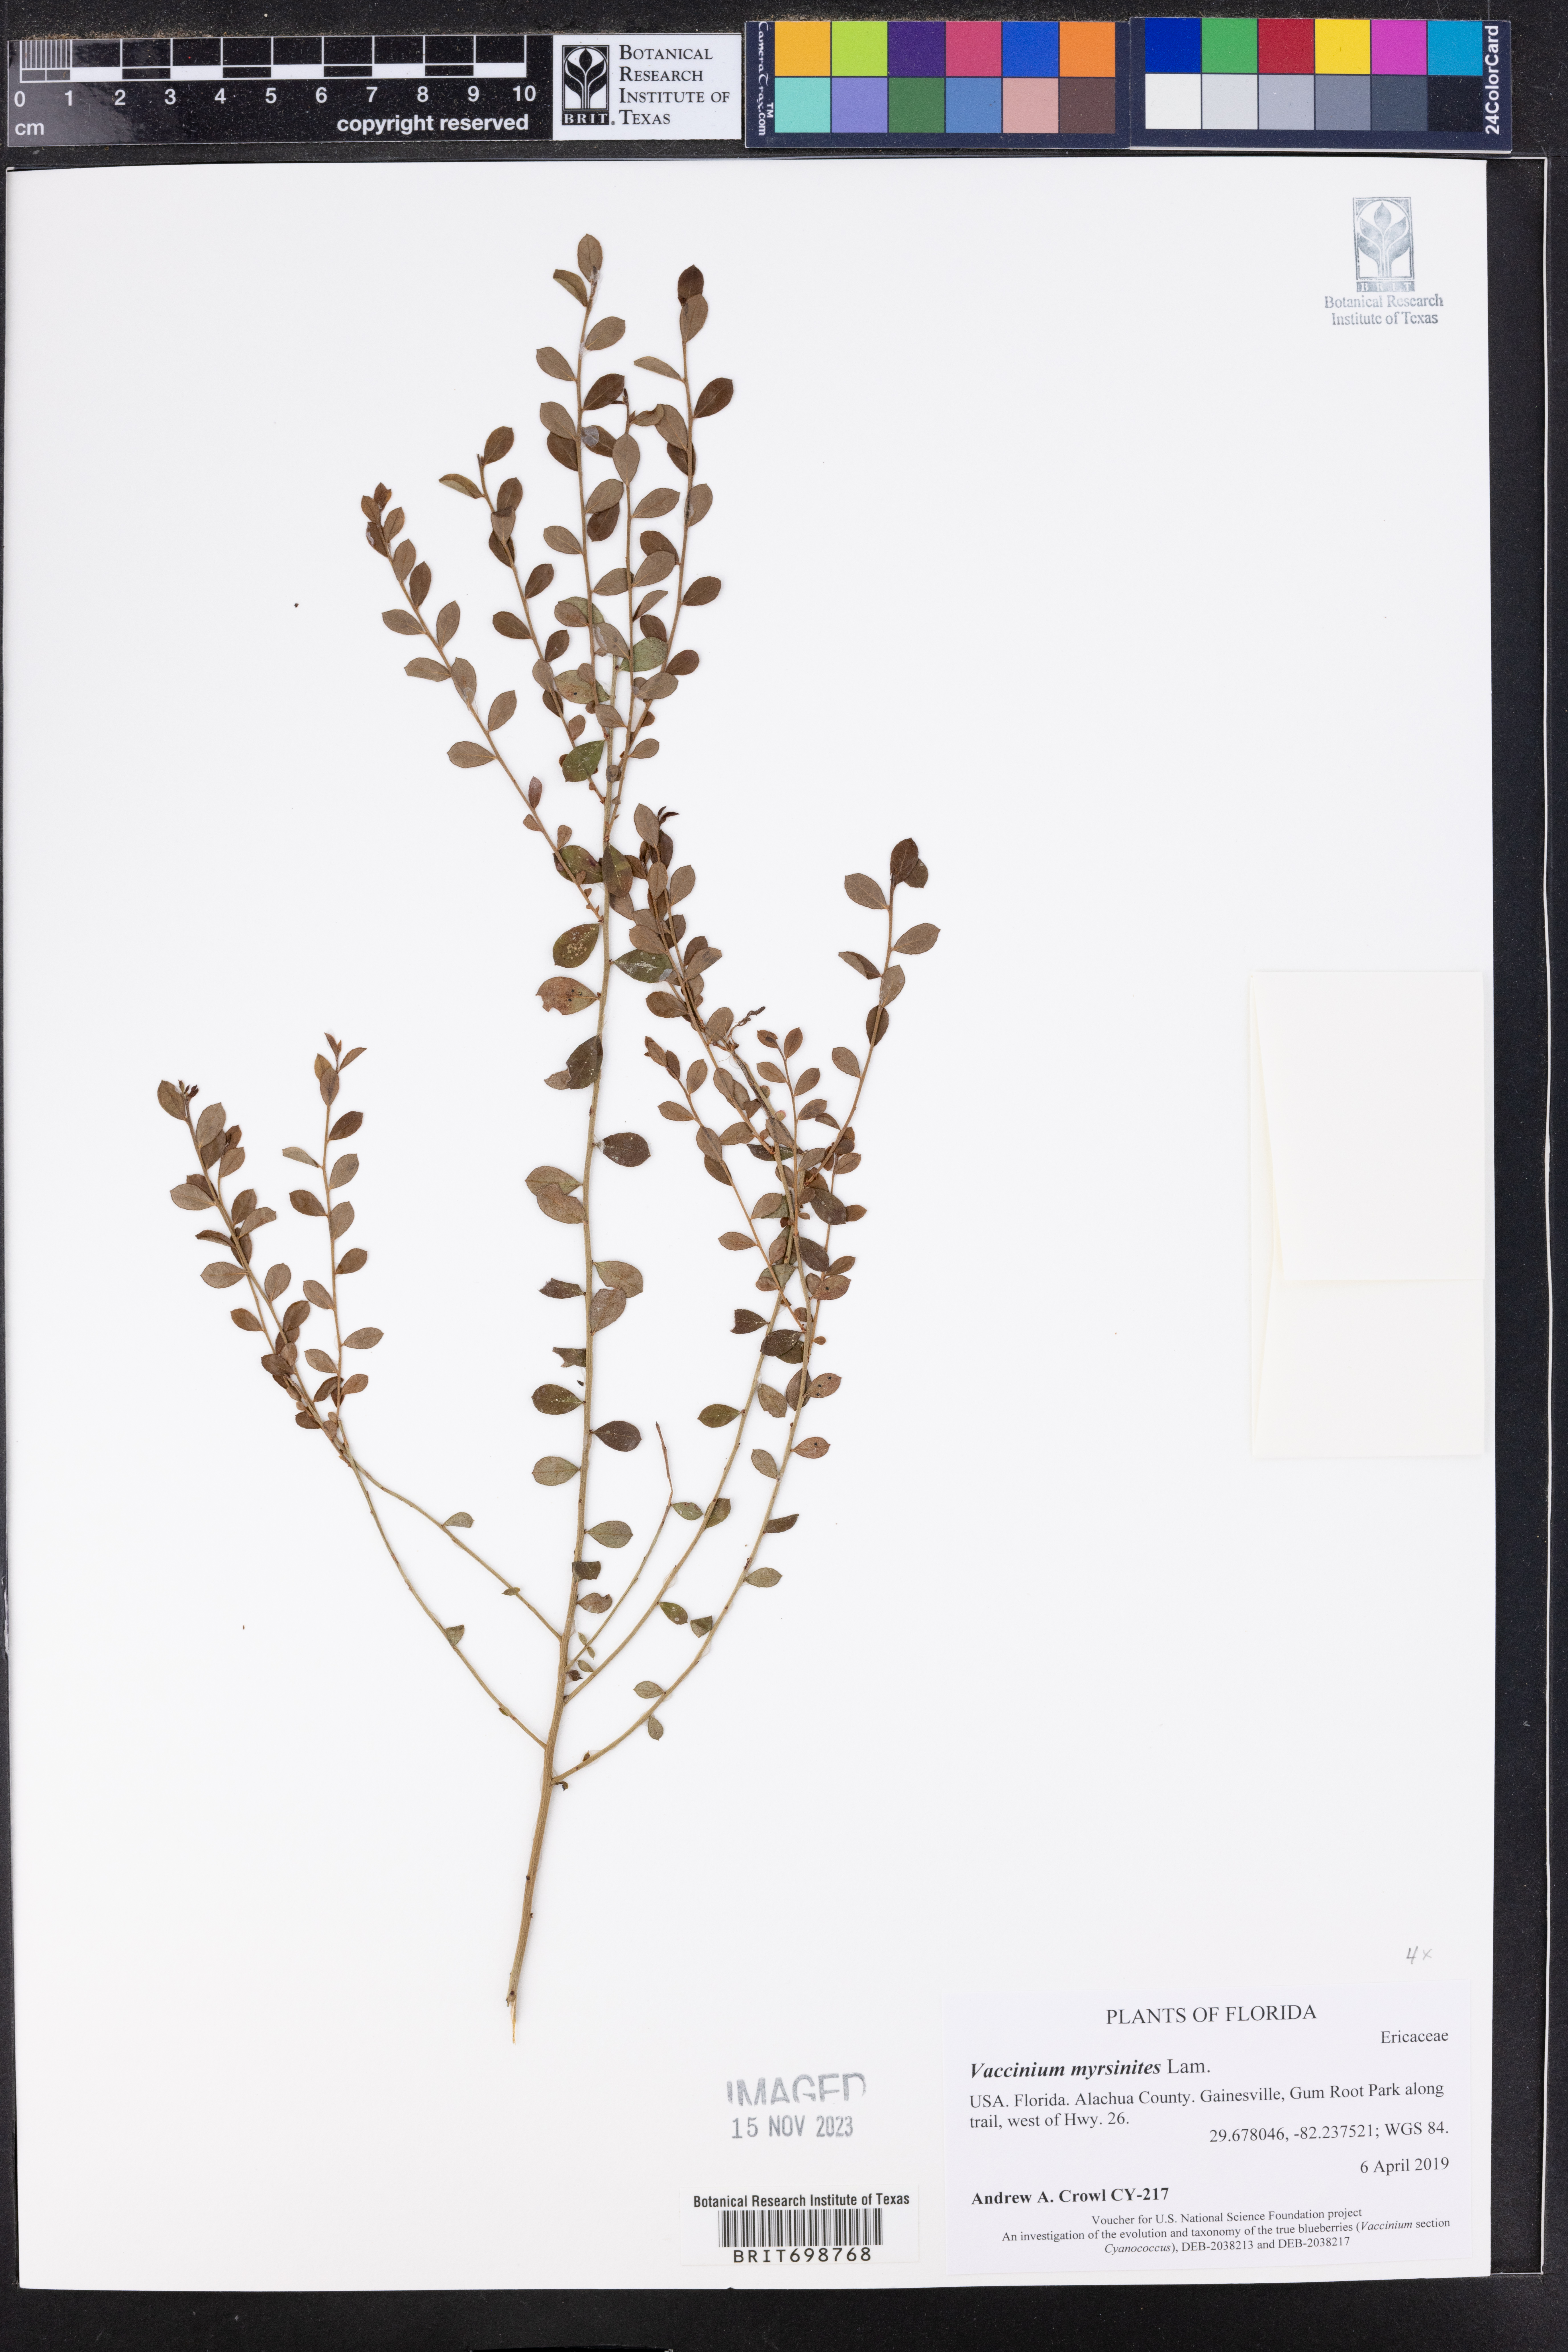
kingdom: Plantae
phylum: Tracheophyta
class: Magnoliopsida
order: Ericales
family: Ericaceae
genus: Vaccinium
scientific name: Vaccinium myrsinites
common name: Evergreen blueberry
